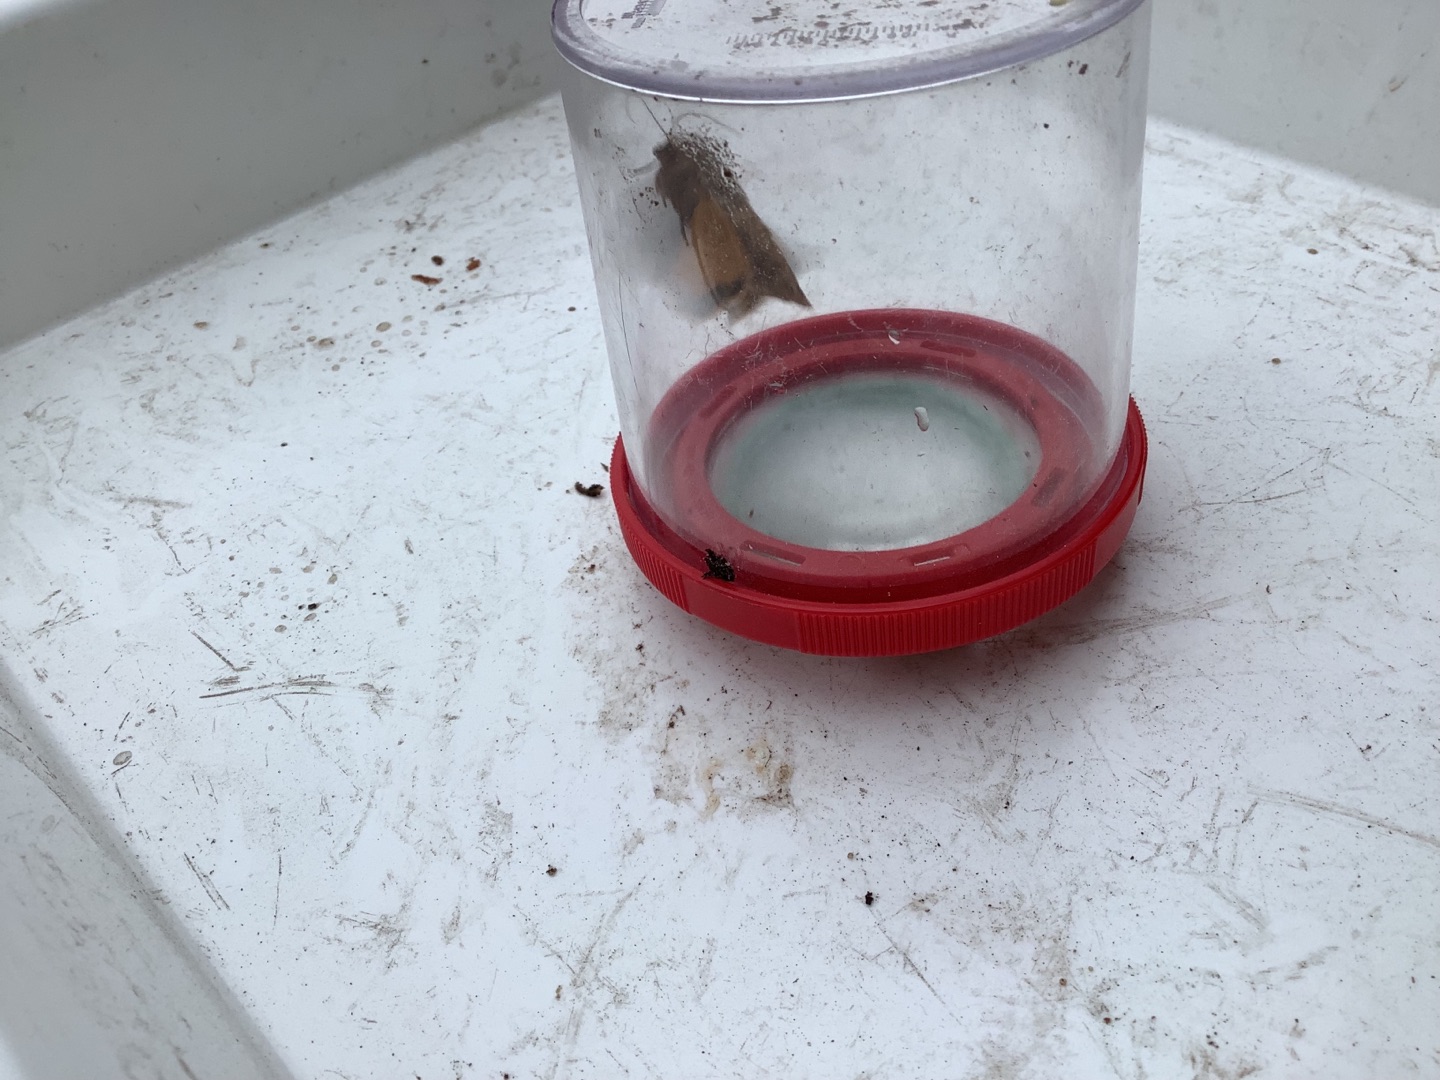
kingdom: Animalia
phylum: Arthropoda
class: Insecta
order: Lepidoptera
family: Noctuidae
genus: Noctua
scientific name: Noctua pronuba
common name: Stor smutugle
